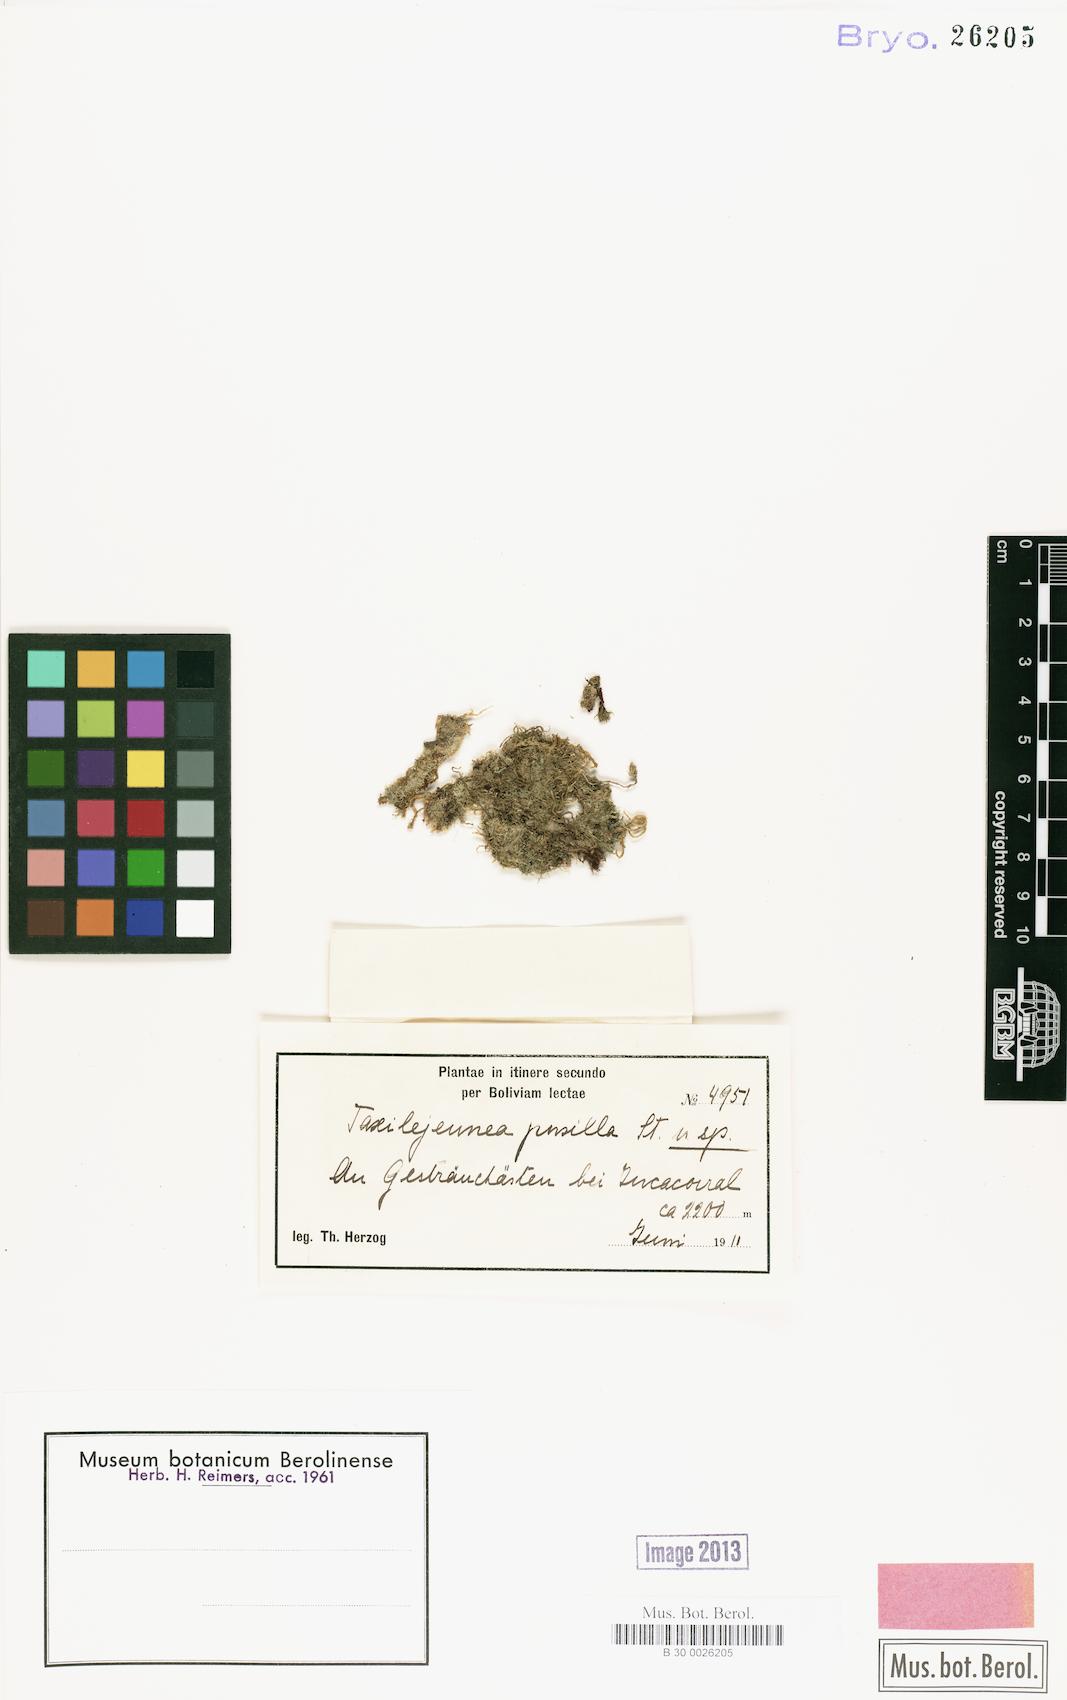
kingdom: Plantae
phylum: Marchantiophyta
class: Jungermanniopsida
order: Porellales
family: Lejeuneaceae
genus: Taxilejeunea
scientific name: Taxilejeunea pusilla
